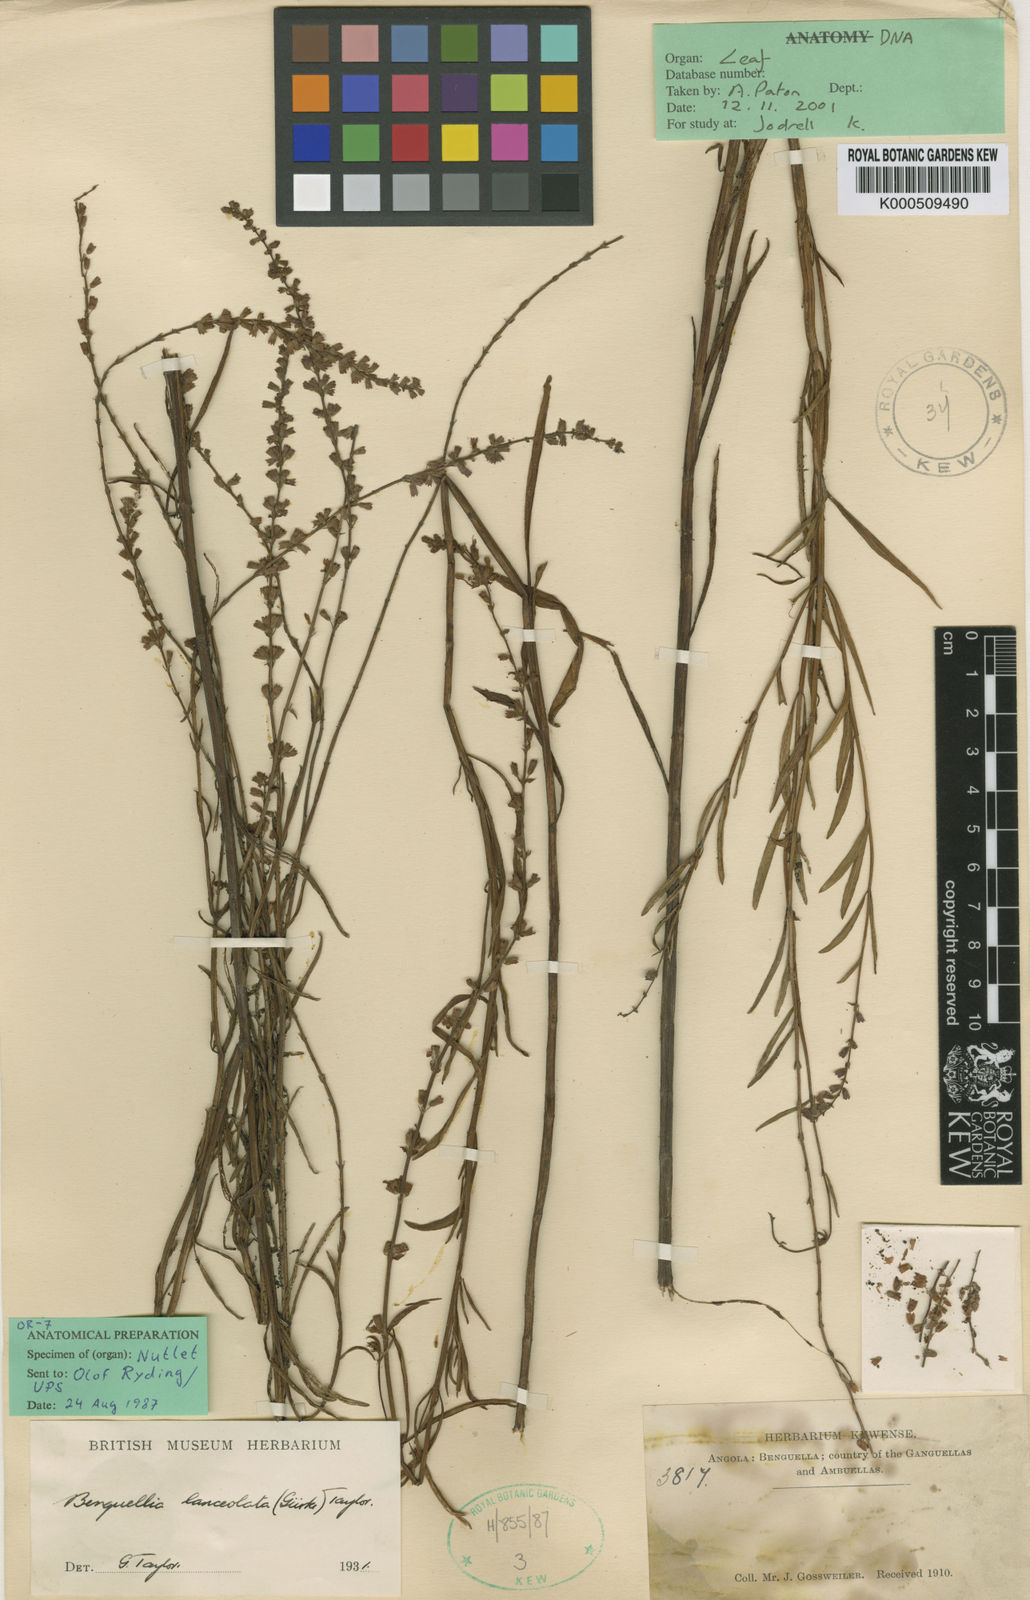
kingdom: Plantae
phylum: Tracheophyta
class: Magnoliopsida
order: Lamiales
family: Lamiaceae
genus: Benguellia
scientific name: Benguellia
